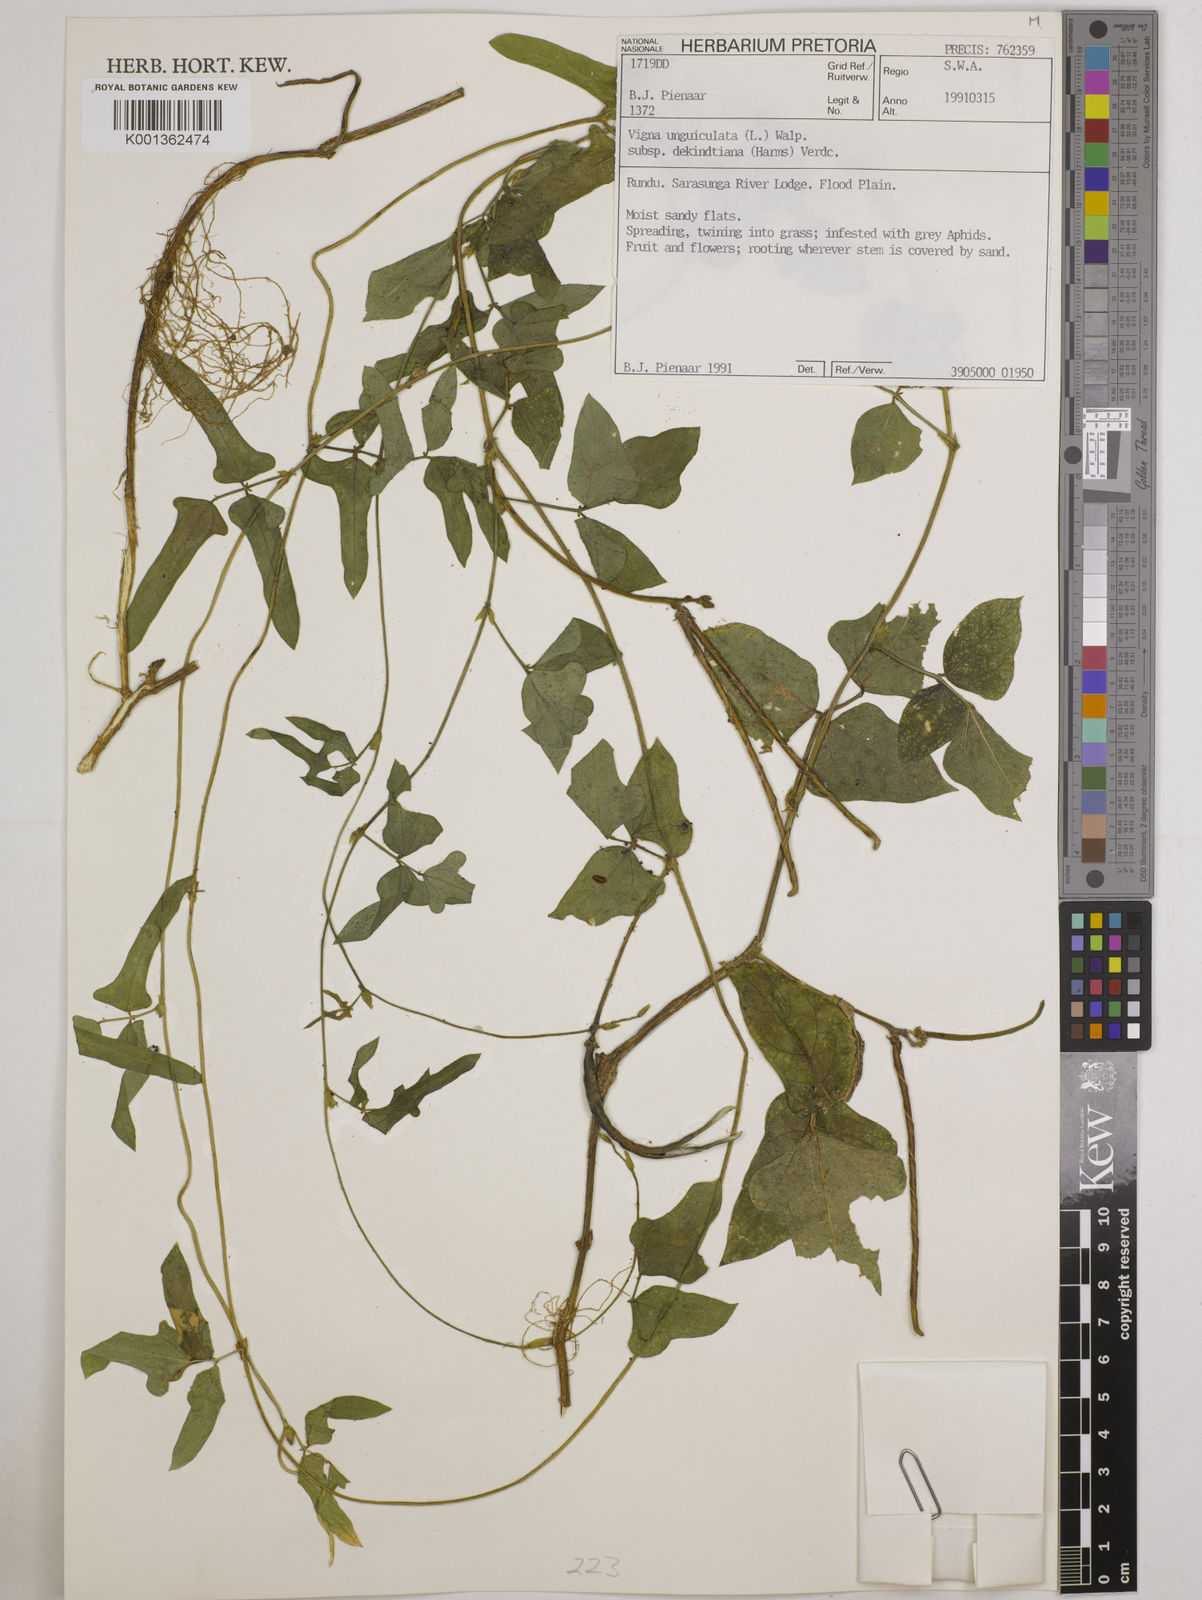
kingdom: Plantae
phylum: Tracheophyta
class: Magnoliopsida
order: Fabales
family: Fabaceae
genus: Vigna
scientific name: Vigna
